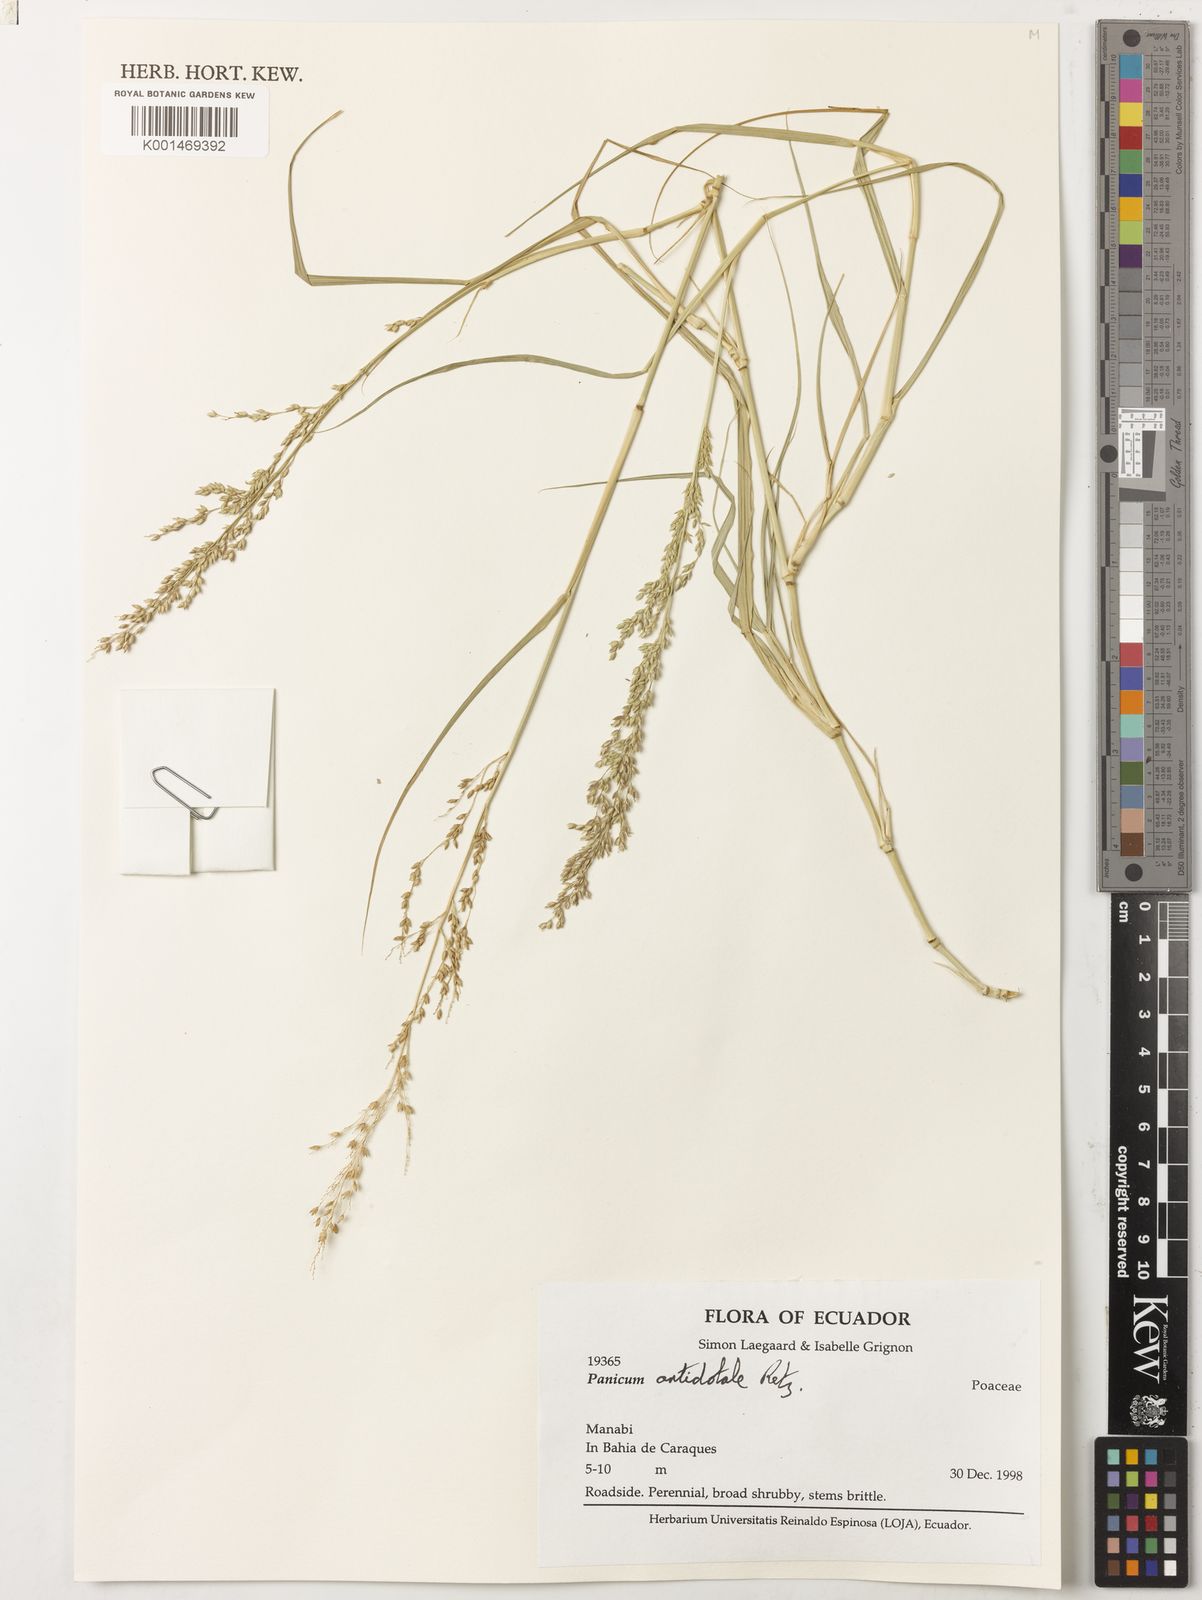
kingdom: Plantae
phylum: Tracheophyta
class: Liliopsida
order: Poales
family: Poaceae
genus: Panicum
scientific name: Panicum antidotale
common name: Blue panicum
